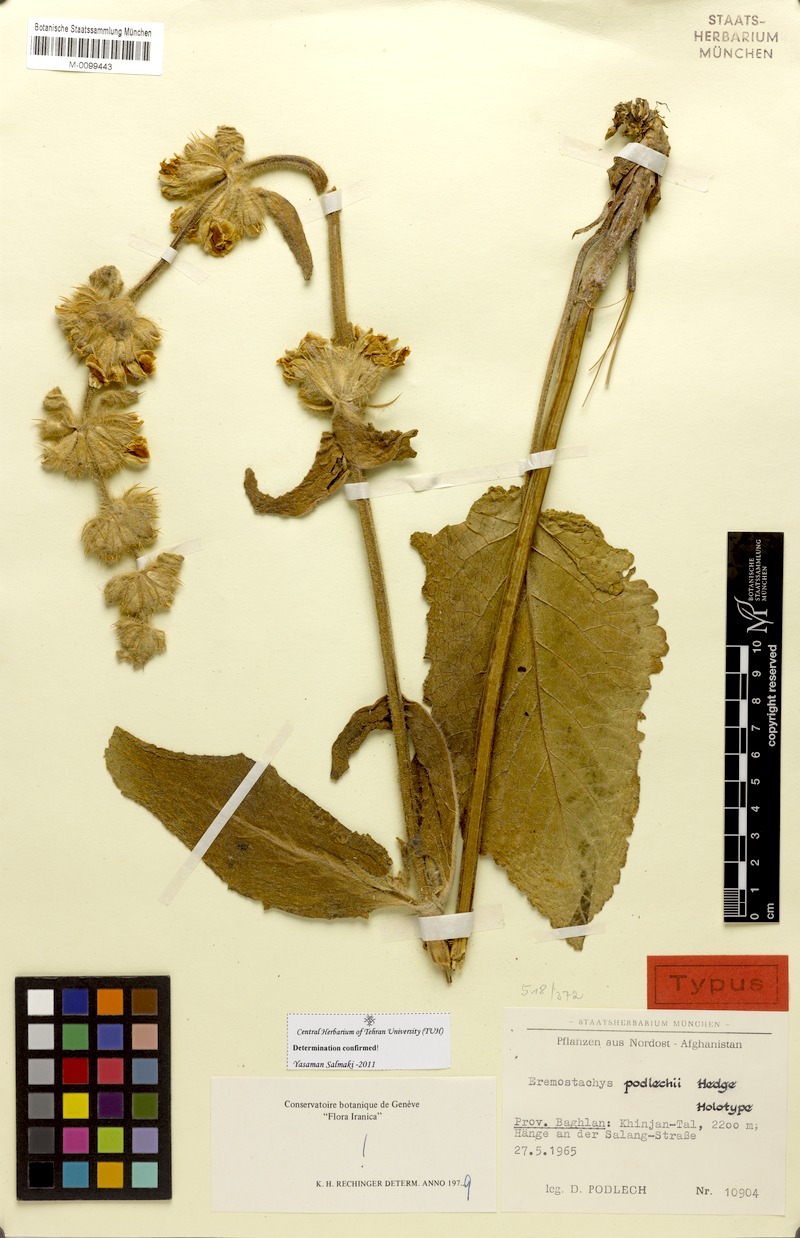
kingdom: Plantae
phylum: Tracheophyta
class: Magnoliopsida
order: Lamiales
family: Lamiaceae
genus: Phlomoides
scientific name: Phlomoides arctifolia
